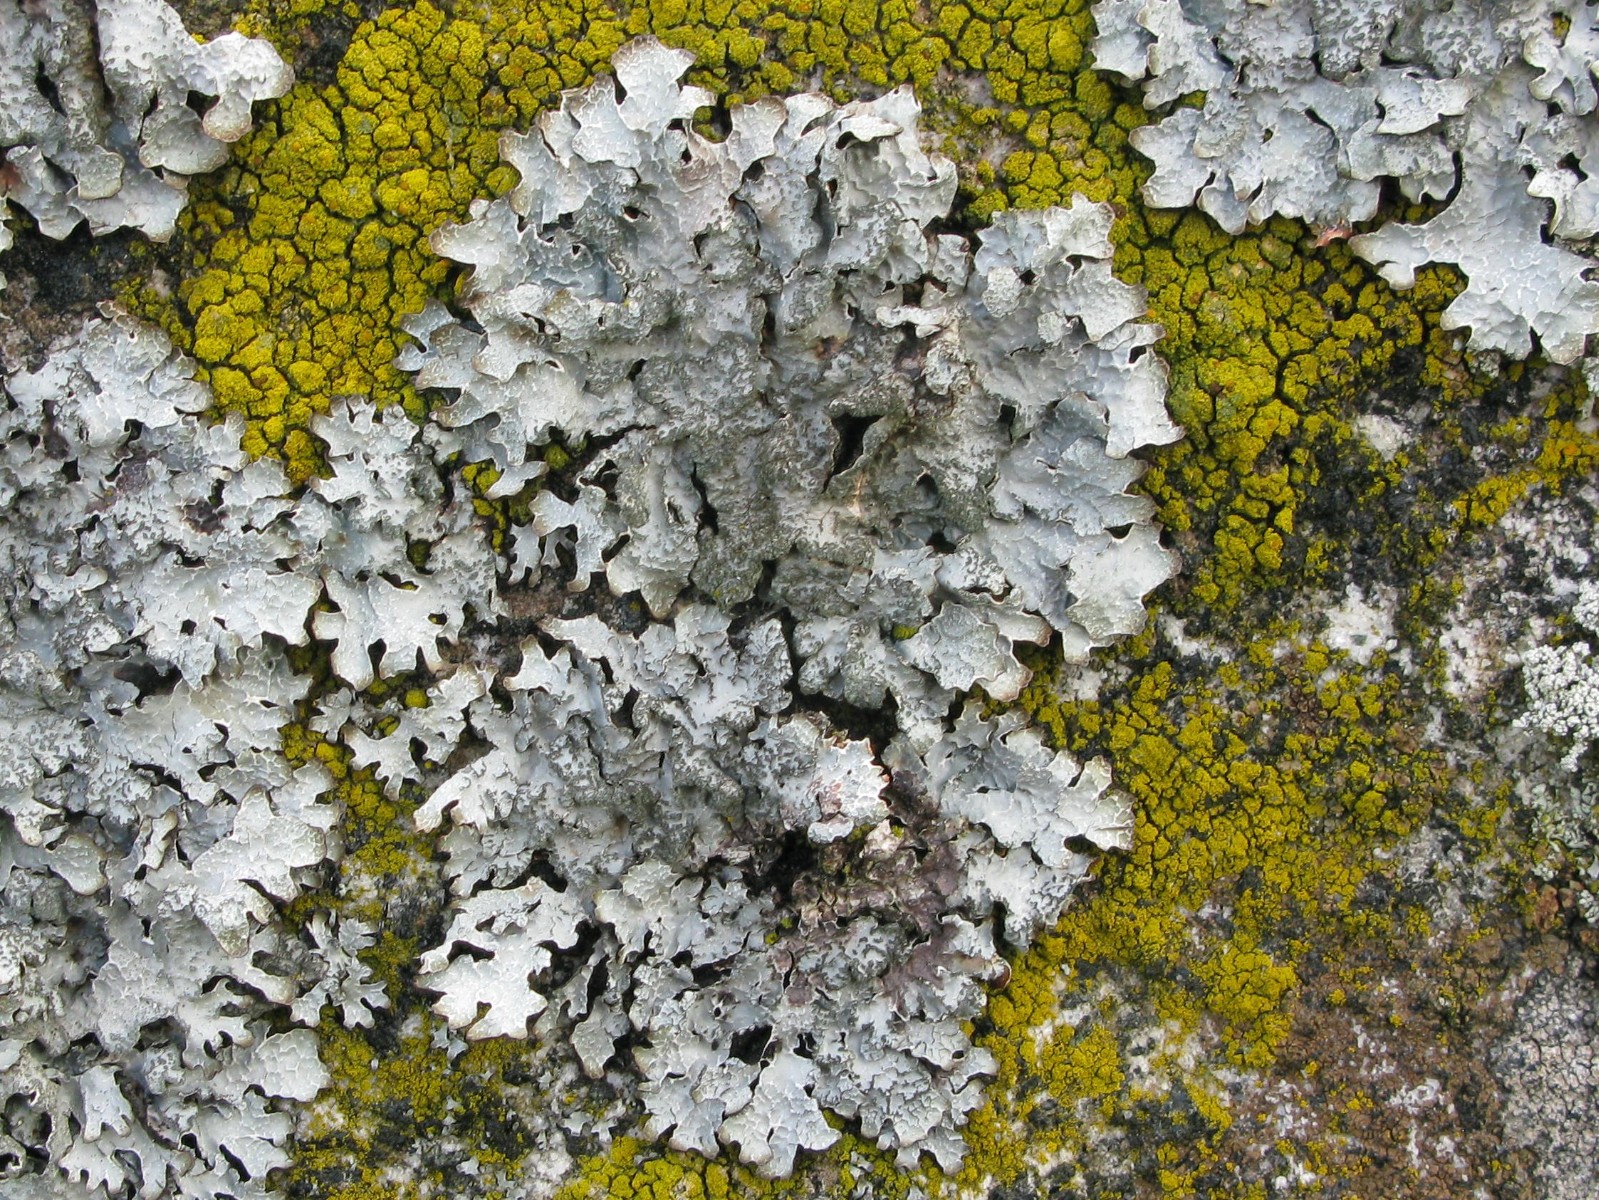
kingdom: Fungi
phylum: Ascomycota
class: Lecanoromycetes
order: Lecanorales
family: Parmeliaceae
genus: Parmelia
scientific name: Parmelia sulcata
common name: rynket skållav
